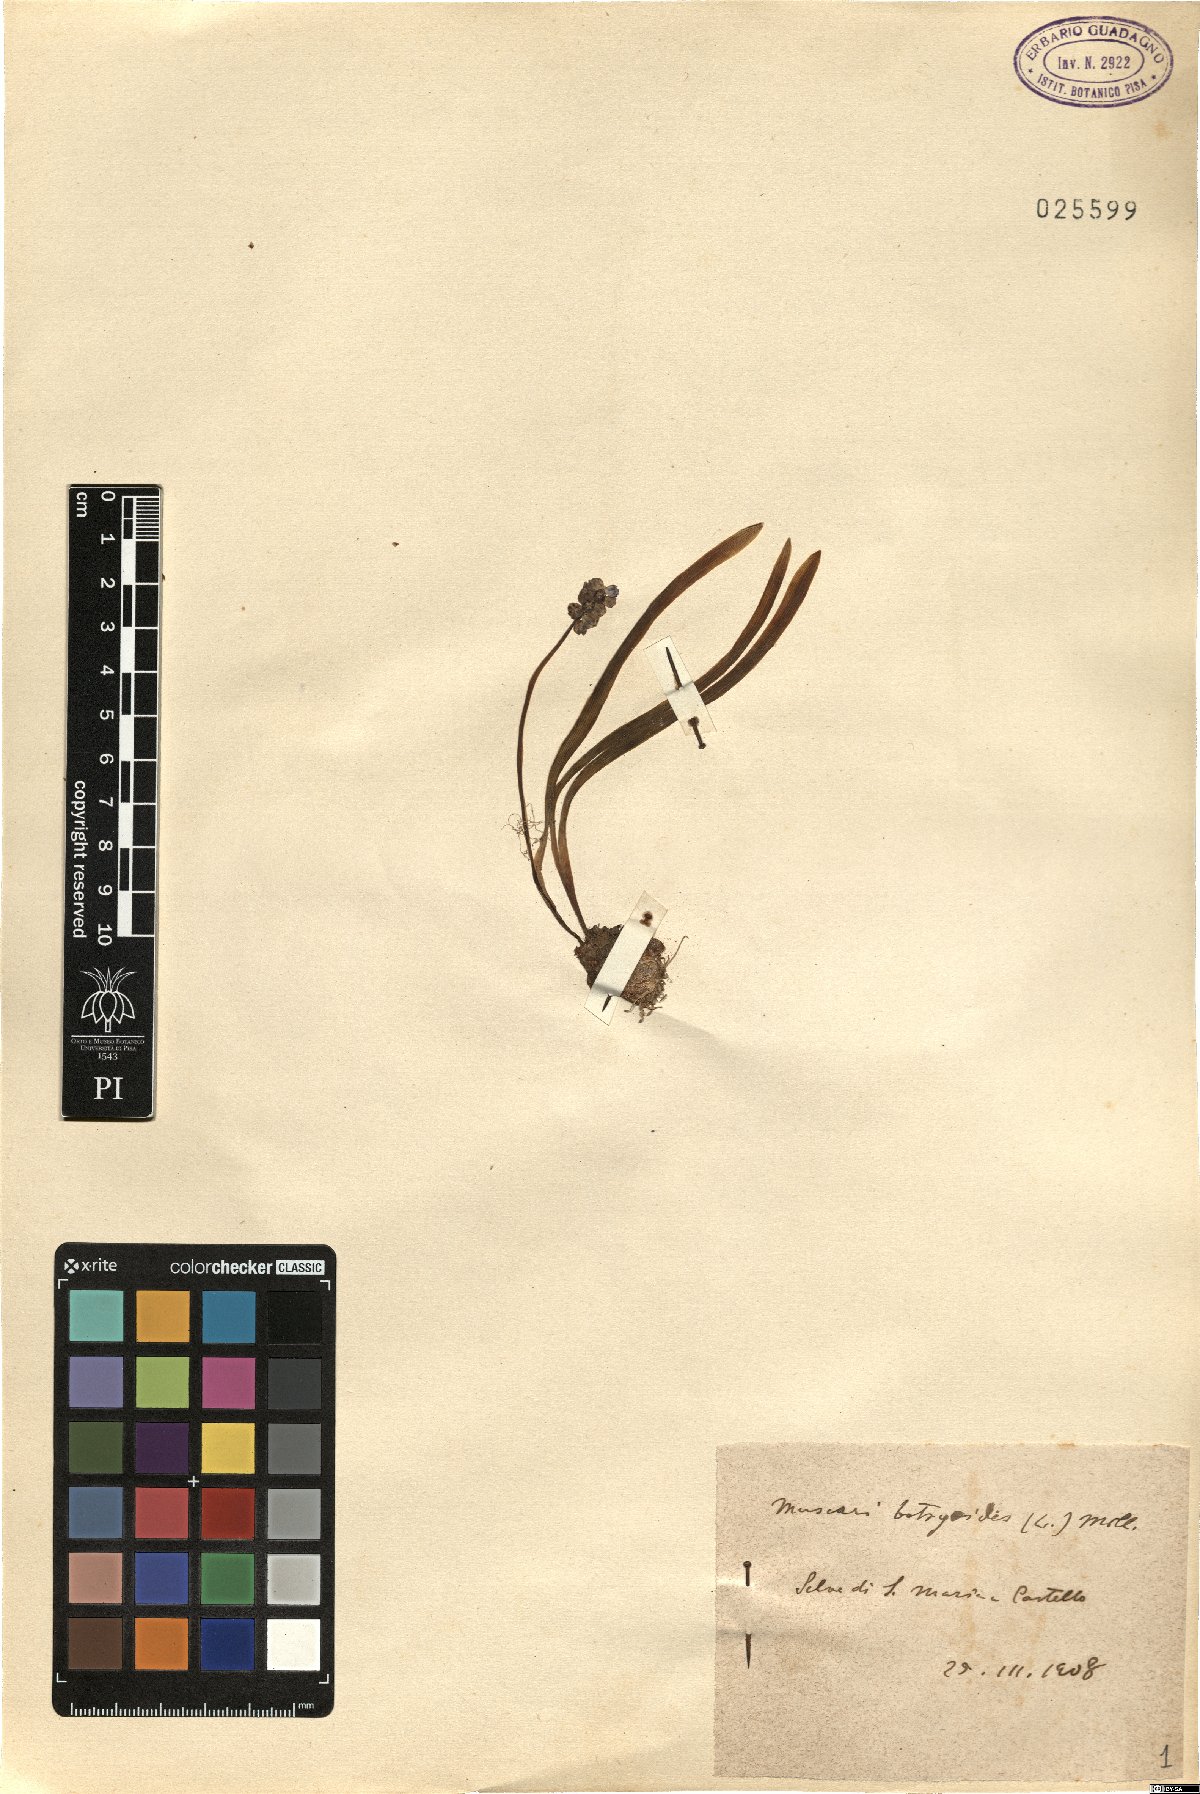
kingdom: Plantae
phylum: Tracheophyta
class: Liliopsida
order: Asparagales
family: Asparagaceae
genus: Muscari
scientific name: Muscari botryoides
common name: Compact grape-hyacinth
